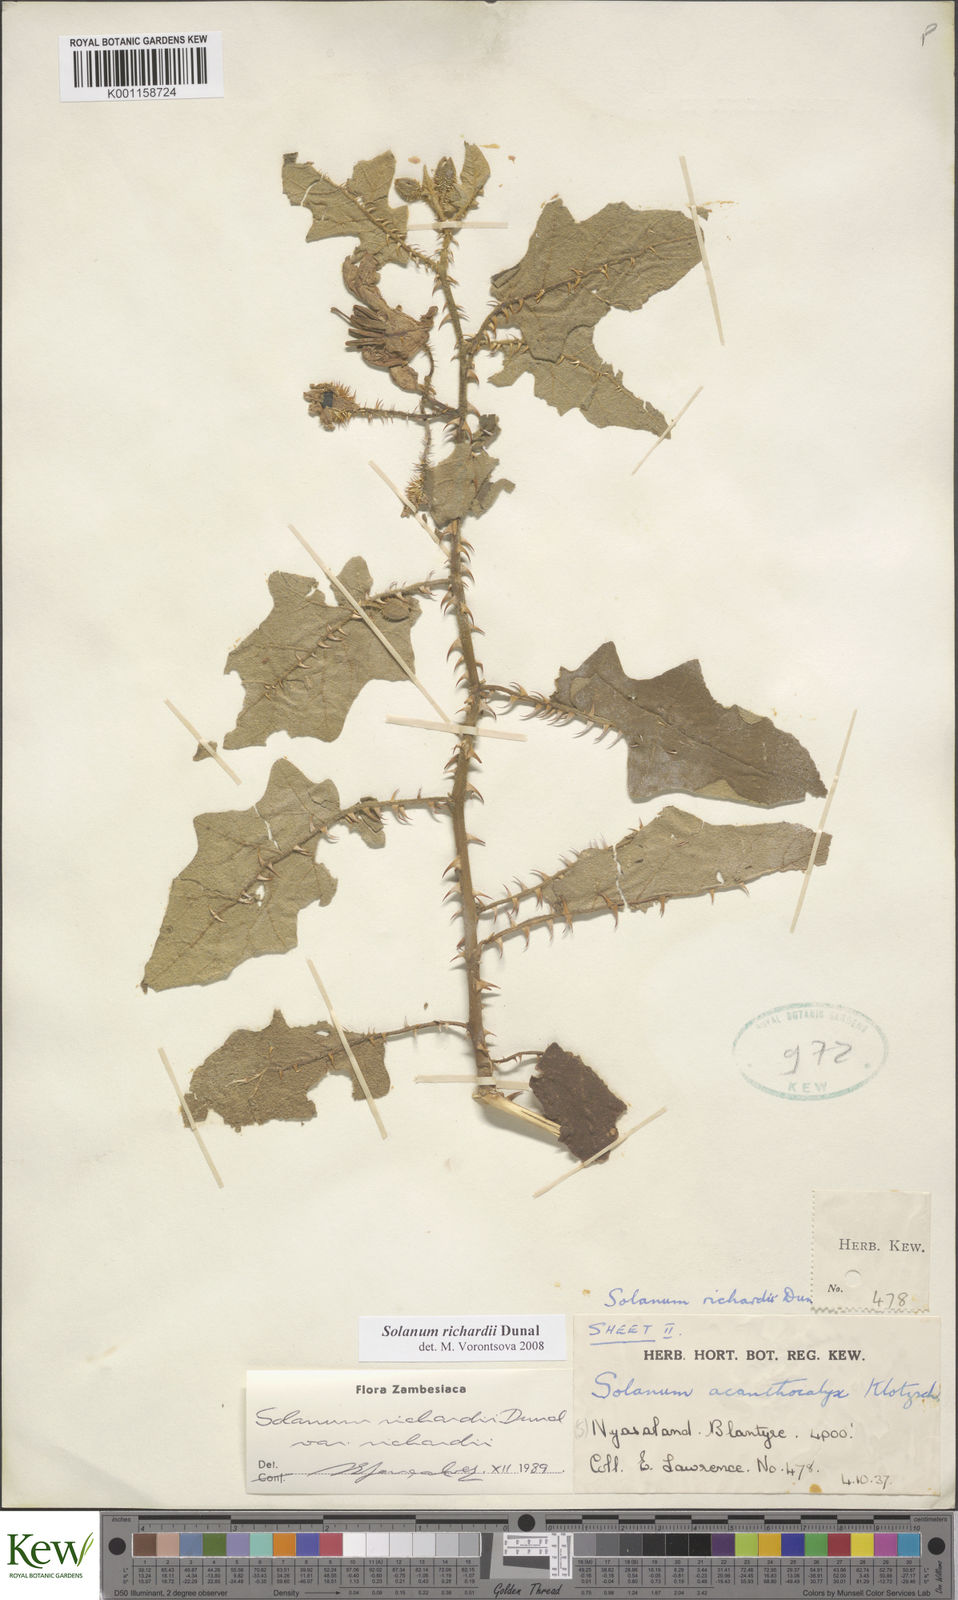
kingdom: Plantae
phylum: Tracheophyta
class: Magnoliopsida
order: Solanales
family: Solanaceae
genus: Solanum
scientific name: Solanum richardii
